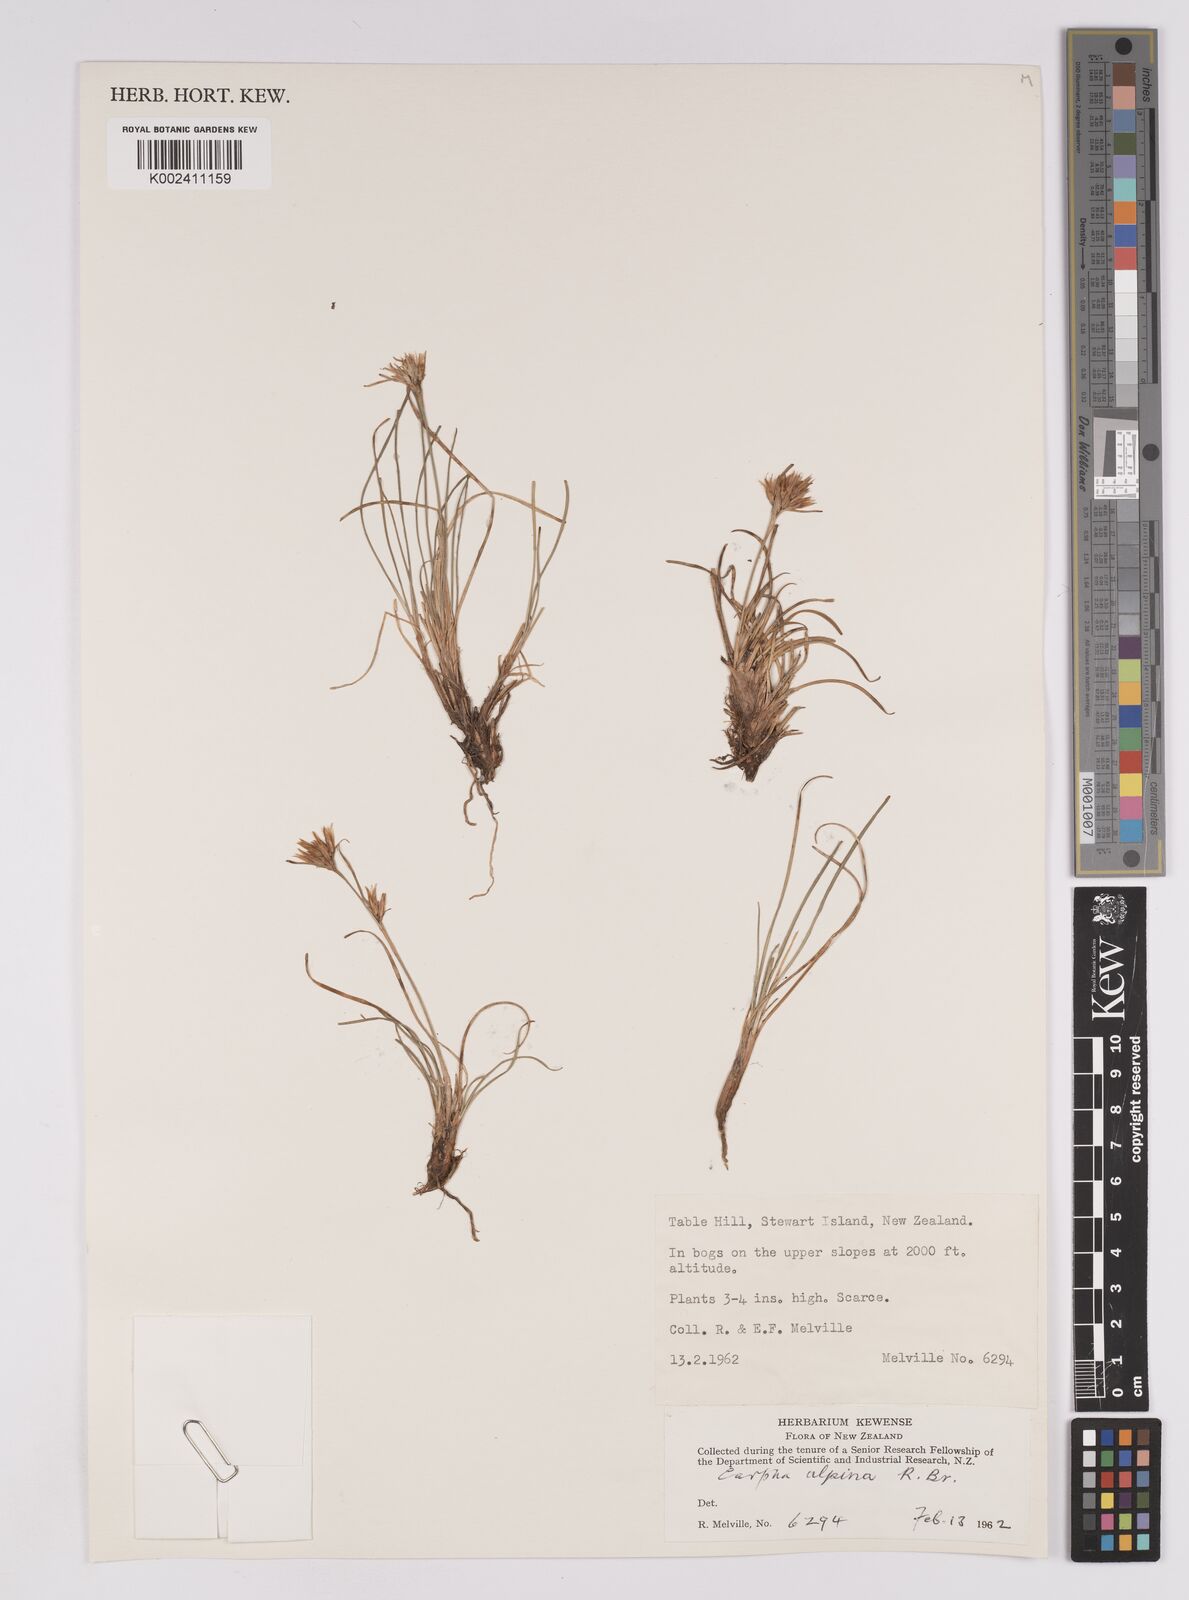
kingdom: Plantae
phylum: Tracheophyta
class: Liliopsida
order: Poales
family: Cyperaceae
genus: Carpha
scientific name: Carpha alpina
